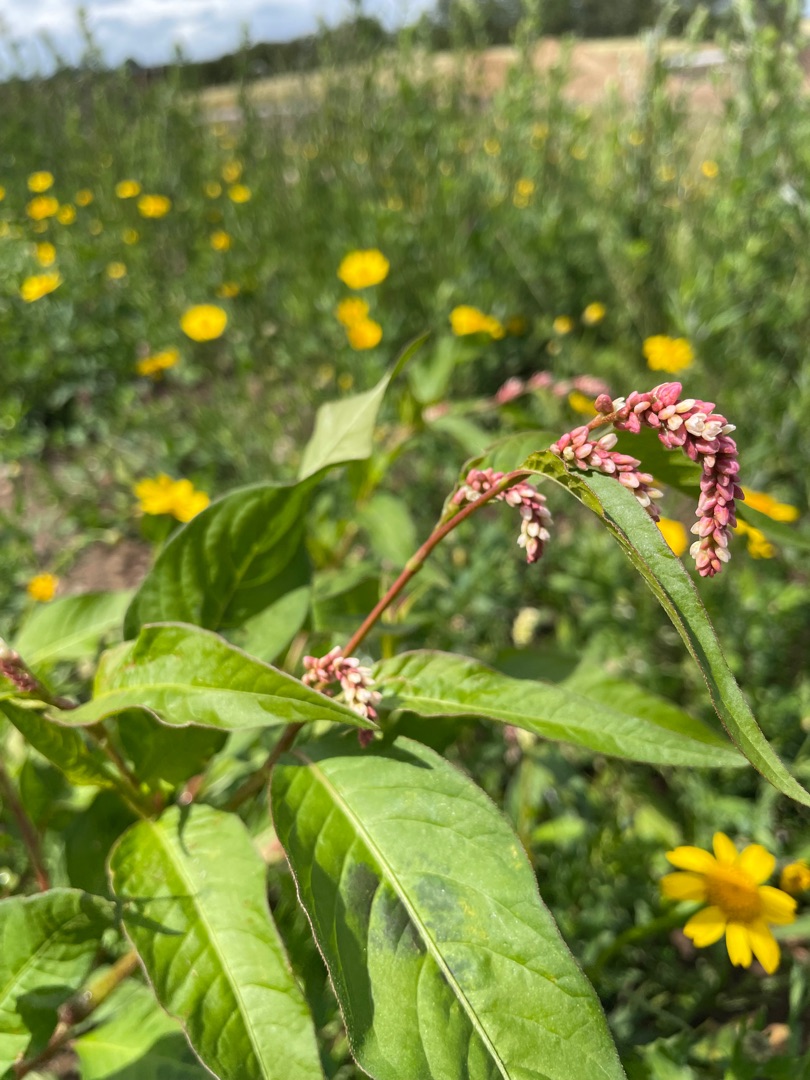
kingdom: Plantae
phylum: Tracheophyta
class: Magnoliopsida
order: Caryophyllales
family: Polygonaceae
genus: Persicaria
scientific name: Persicaria maculosa
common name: Fersken-pileurt
